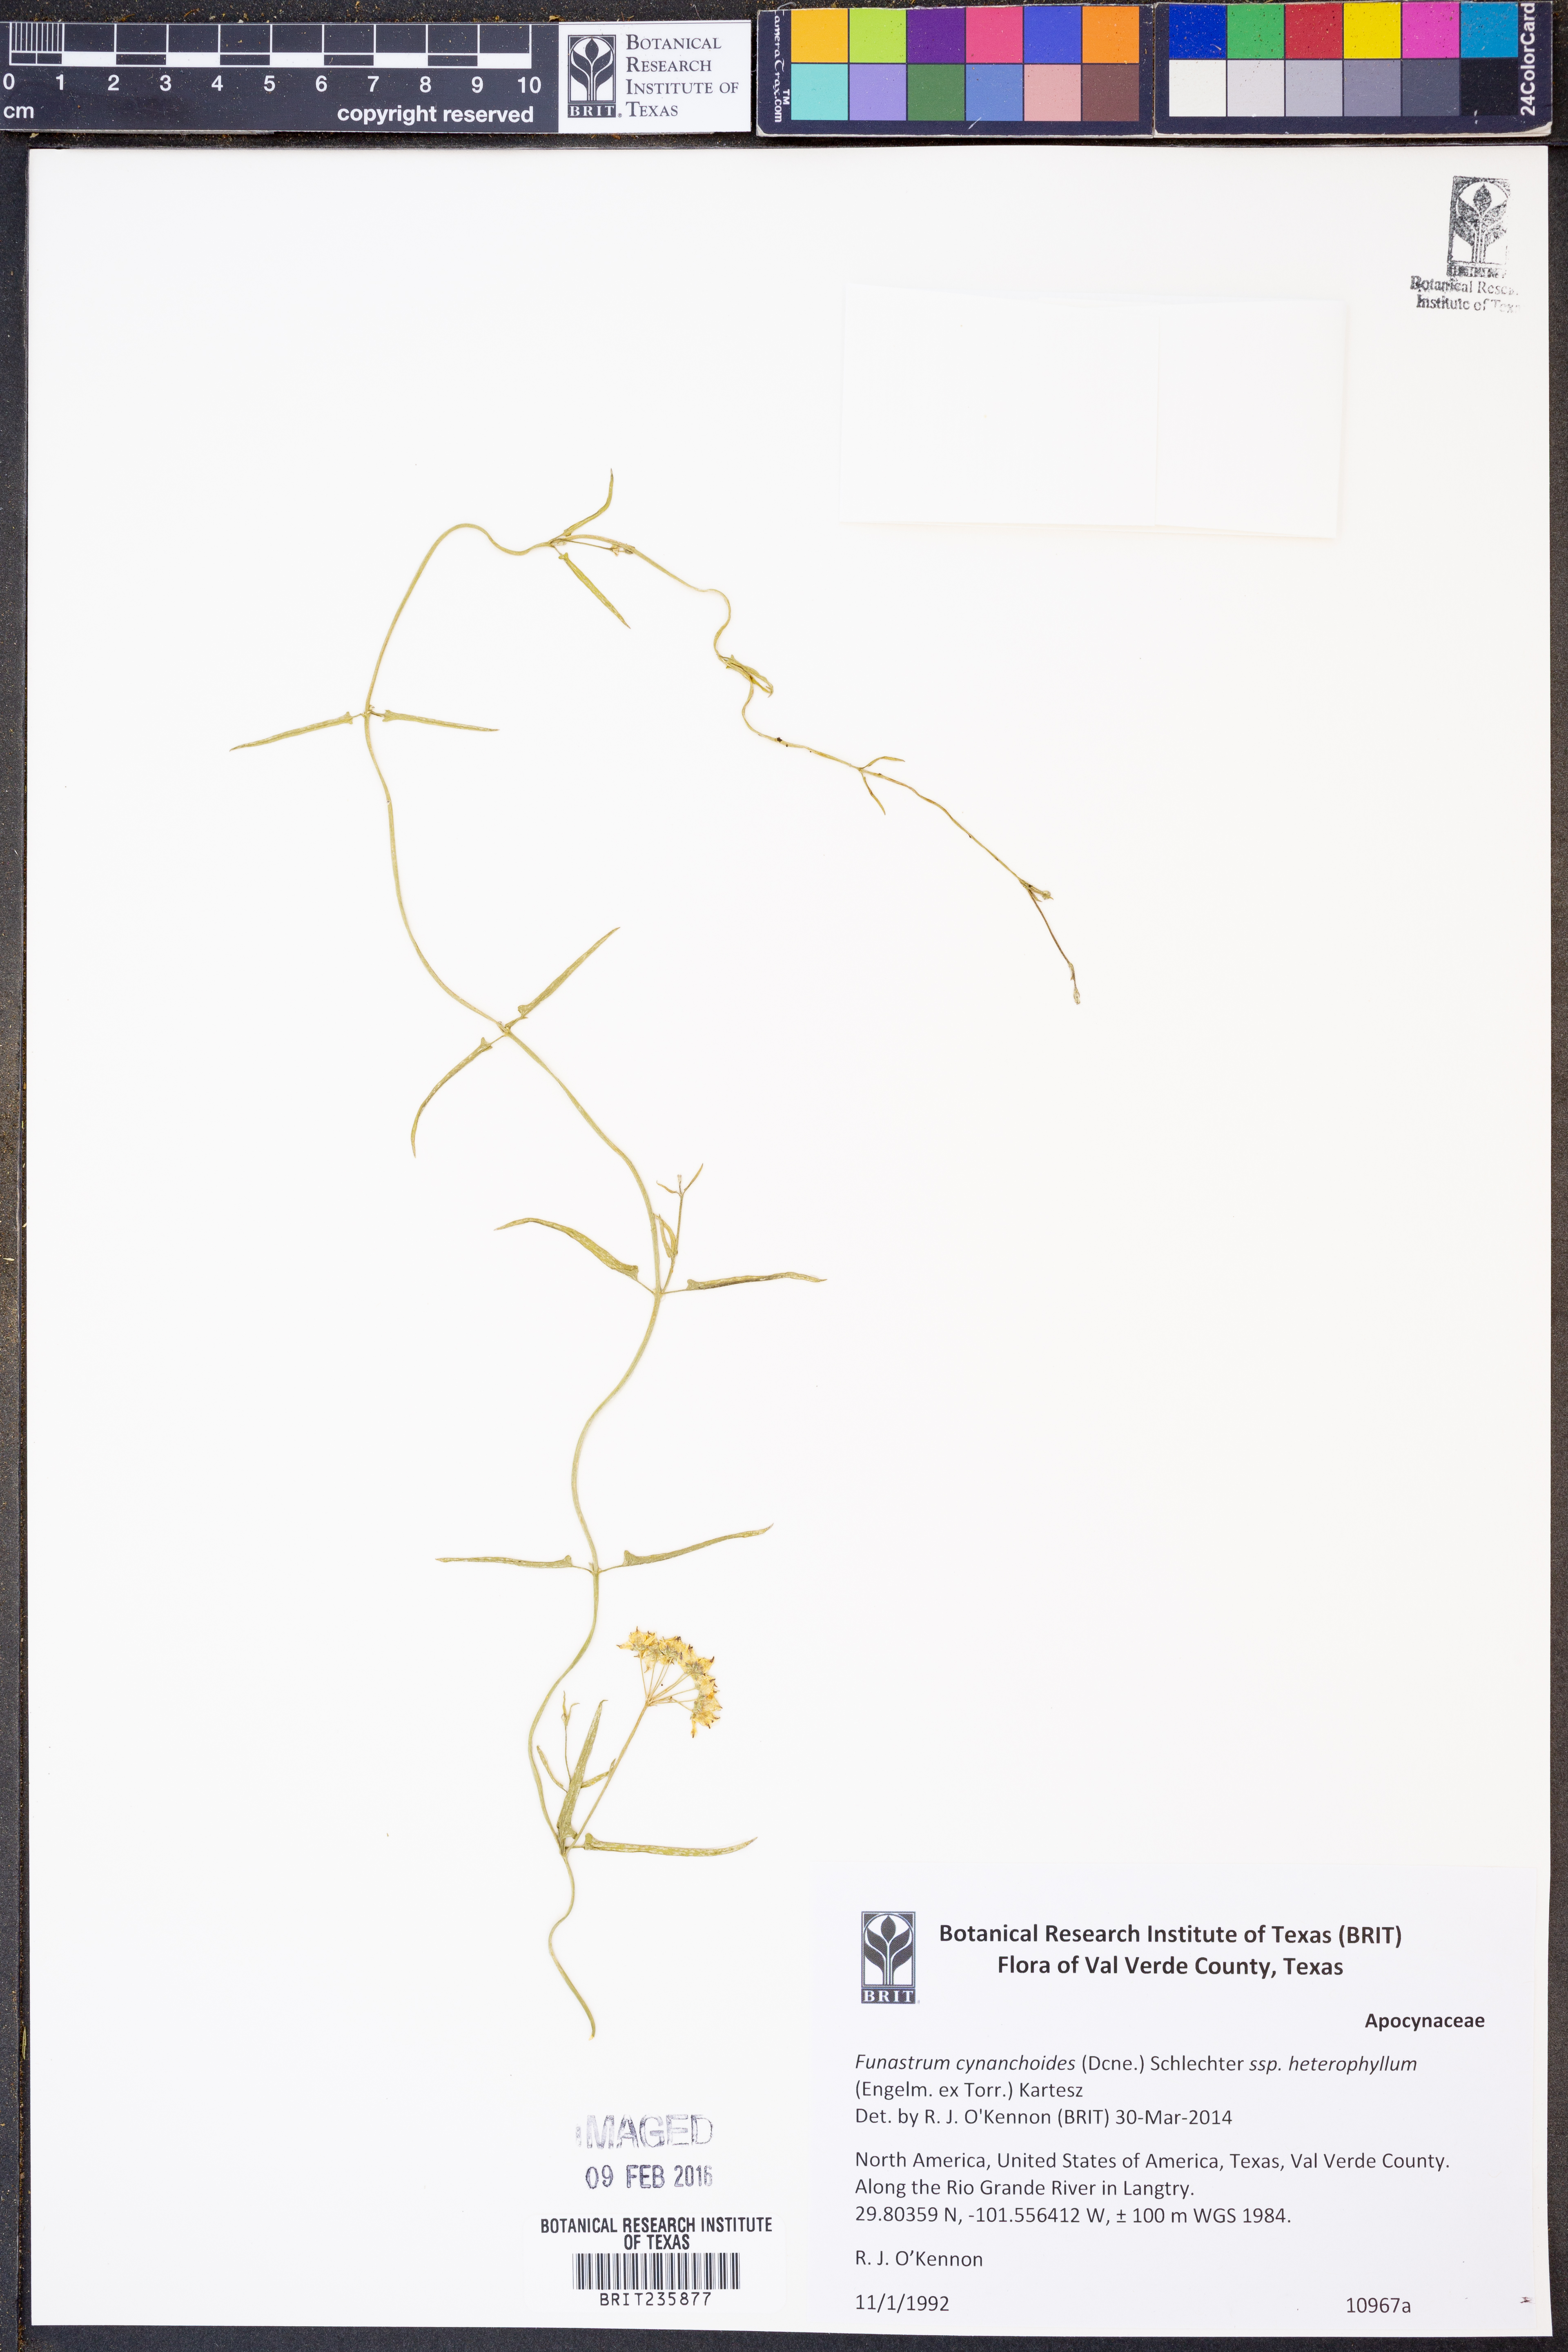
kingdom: Plantae
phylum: Tracheophyta
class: Magnoliopsida
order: Gentianales
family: Apocynaceae
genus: Funastrum
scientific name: Funastrum heterophyllum
